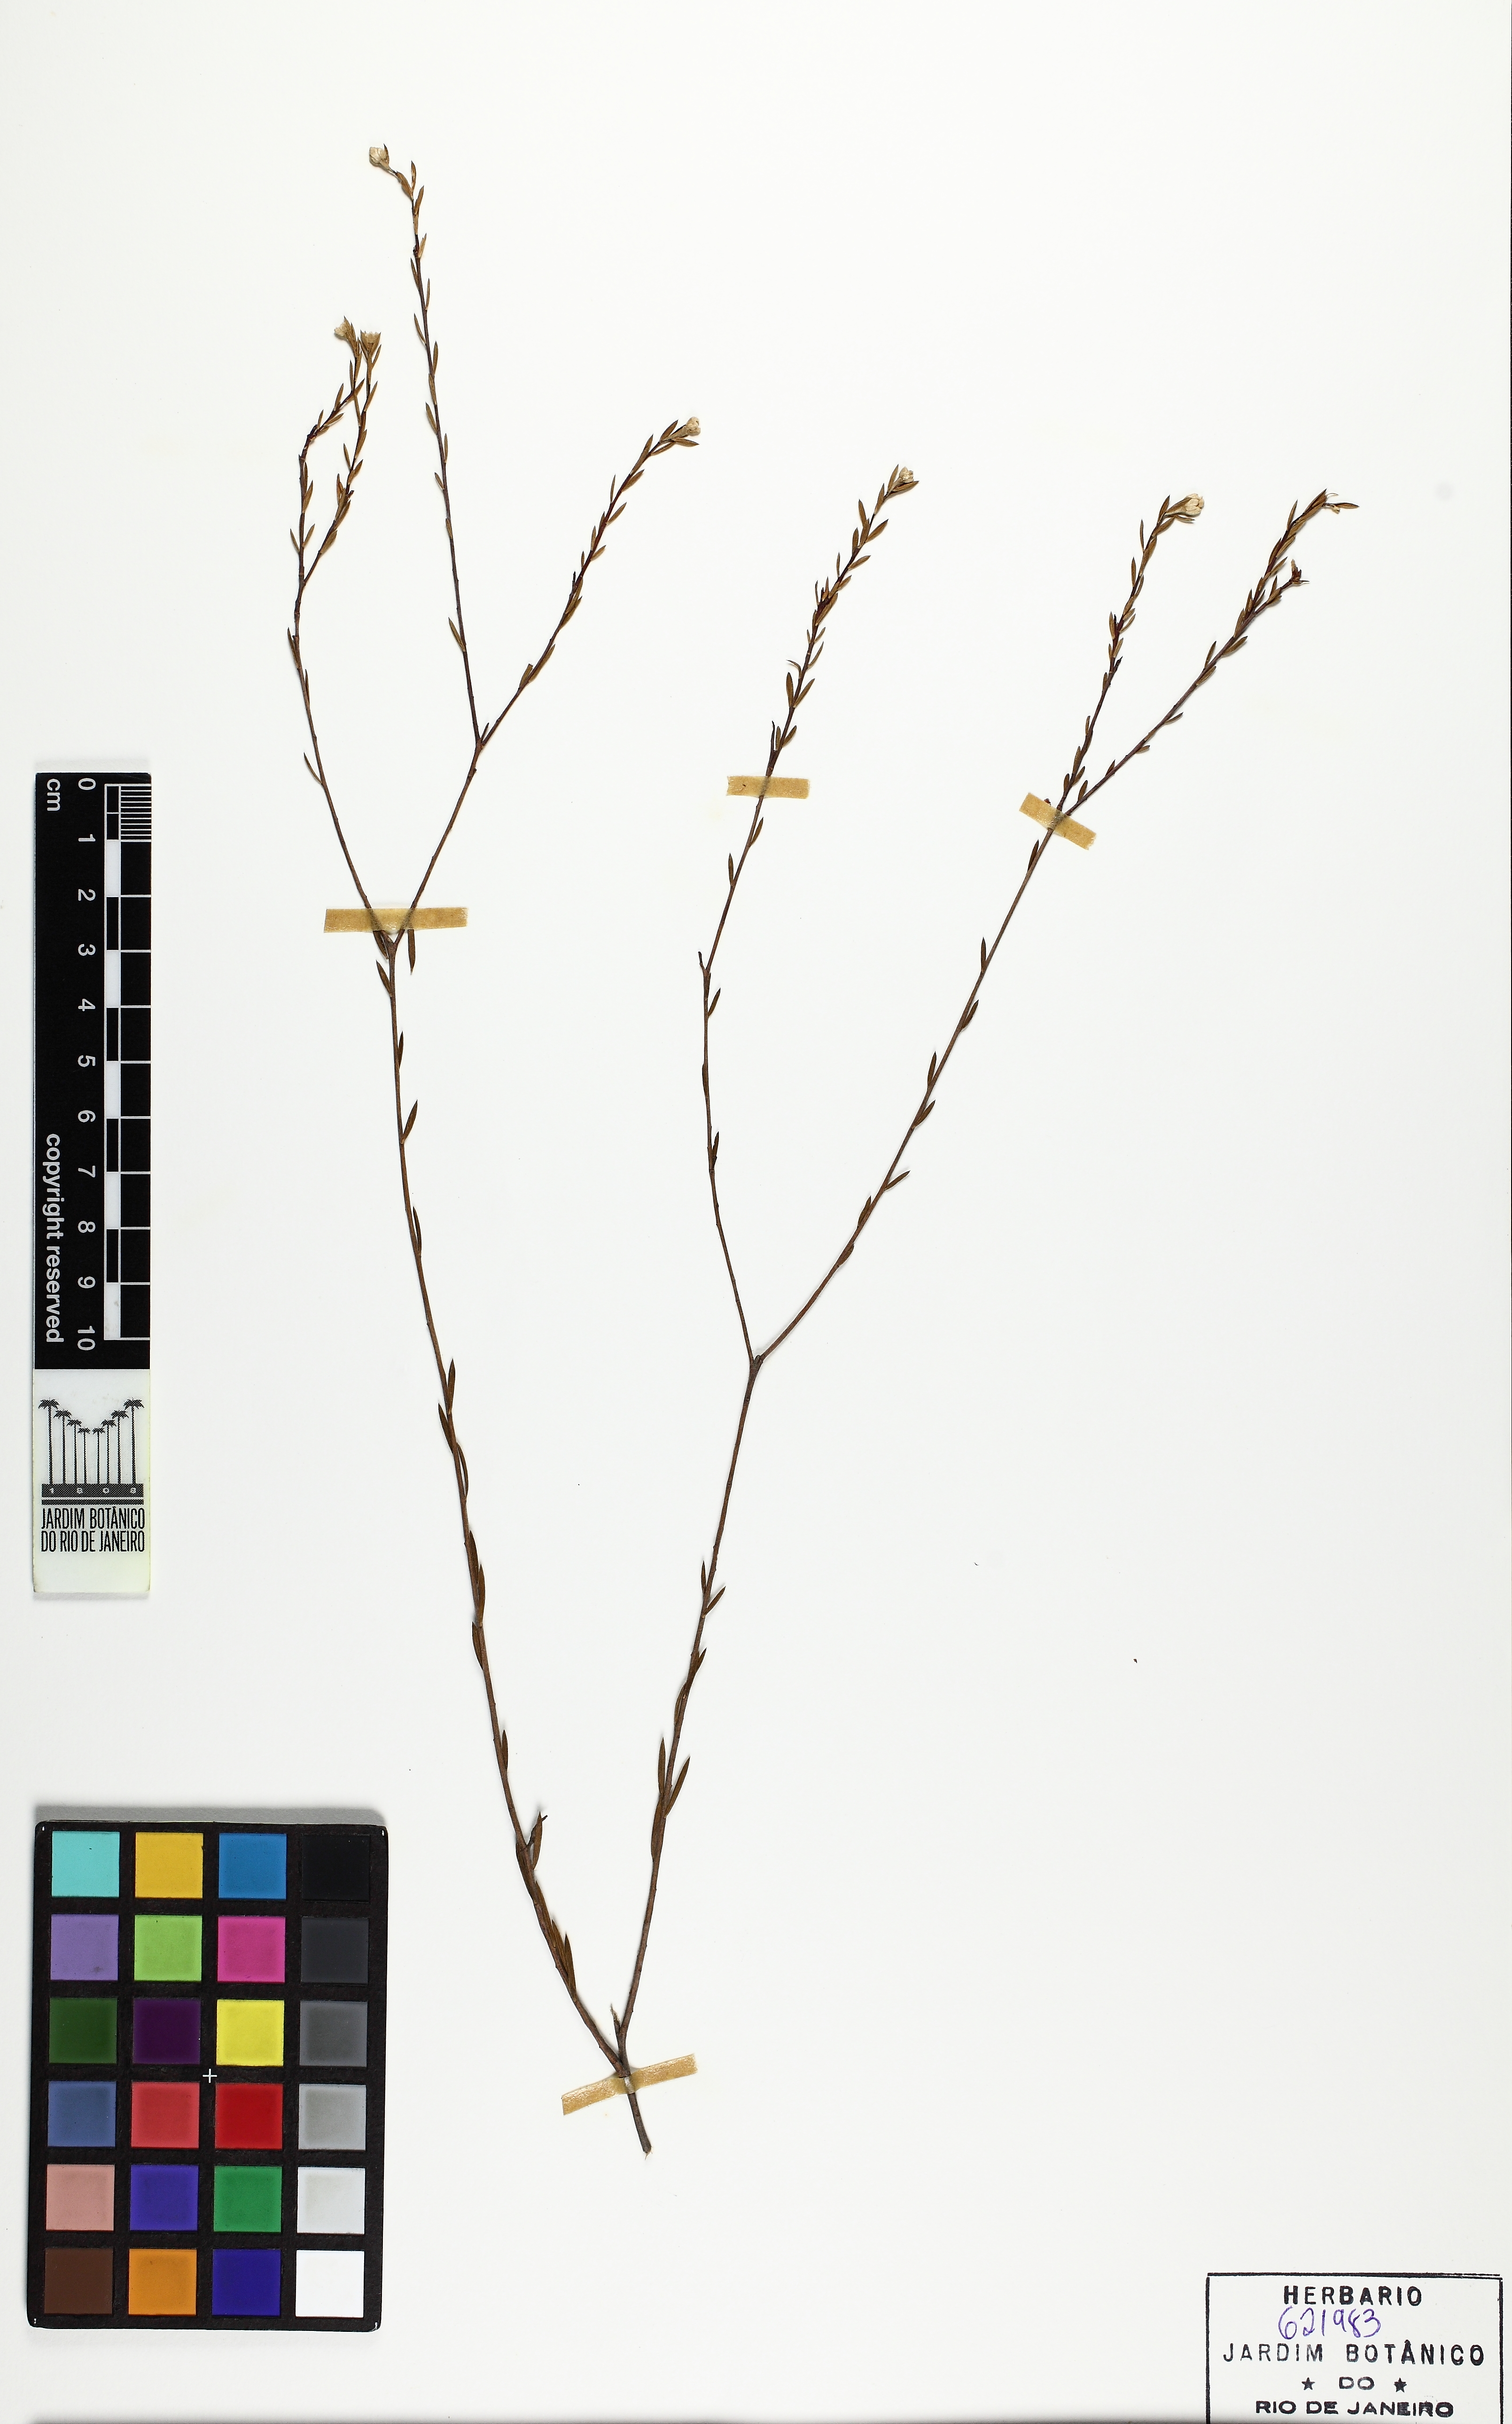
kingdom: Plantae
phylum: Tracheophyta
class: Magnoliopsida
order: Malvales
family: Thymelaeaceae
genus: Lachnaea
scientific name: Lachnaea capitata
